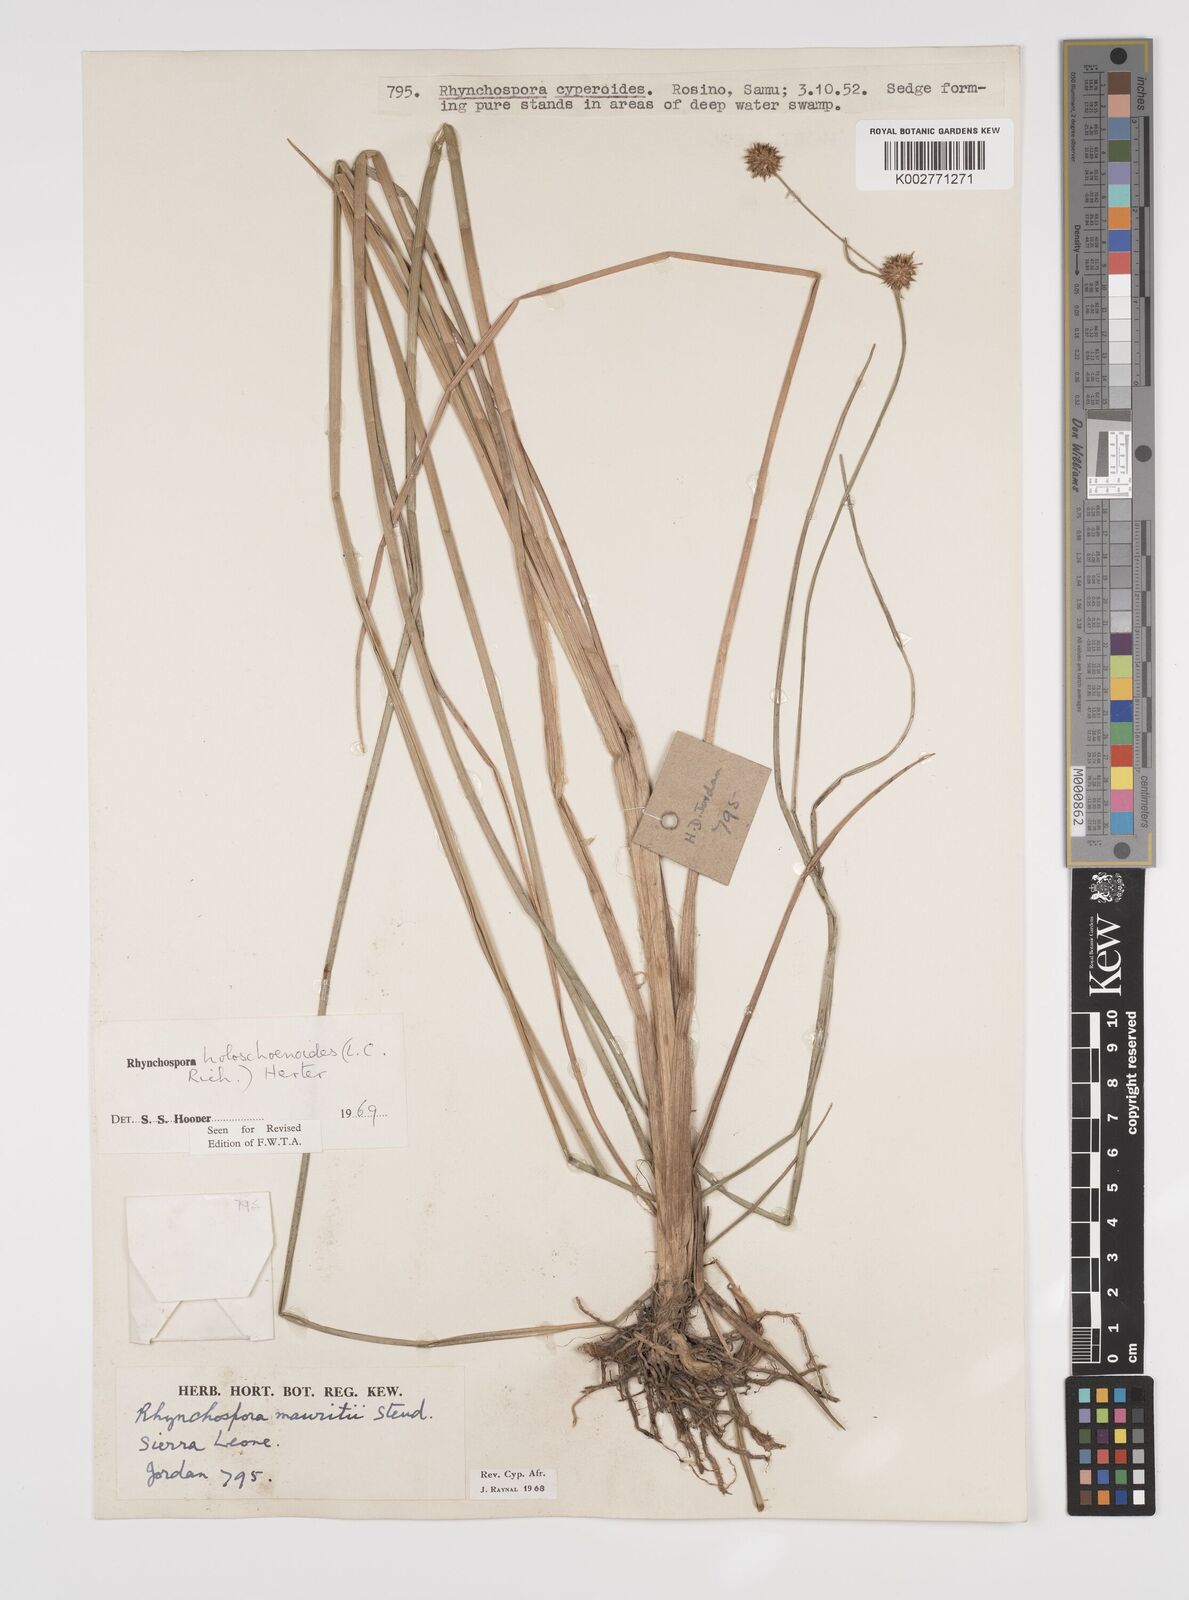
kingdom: Plantae
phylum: Tracheophyta
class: Liliopsida
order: Poales
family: Cyperaceae
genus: Rhynchospora
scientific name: Rhynchospora holoschoenoides
